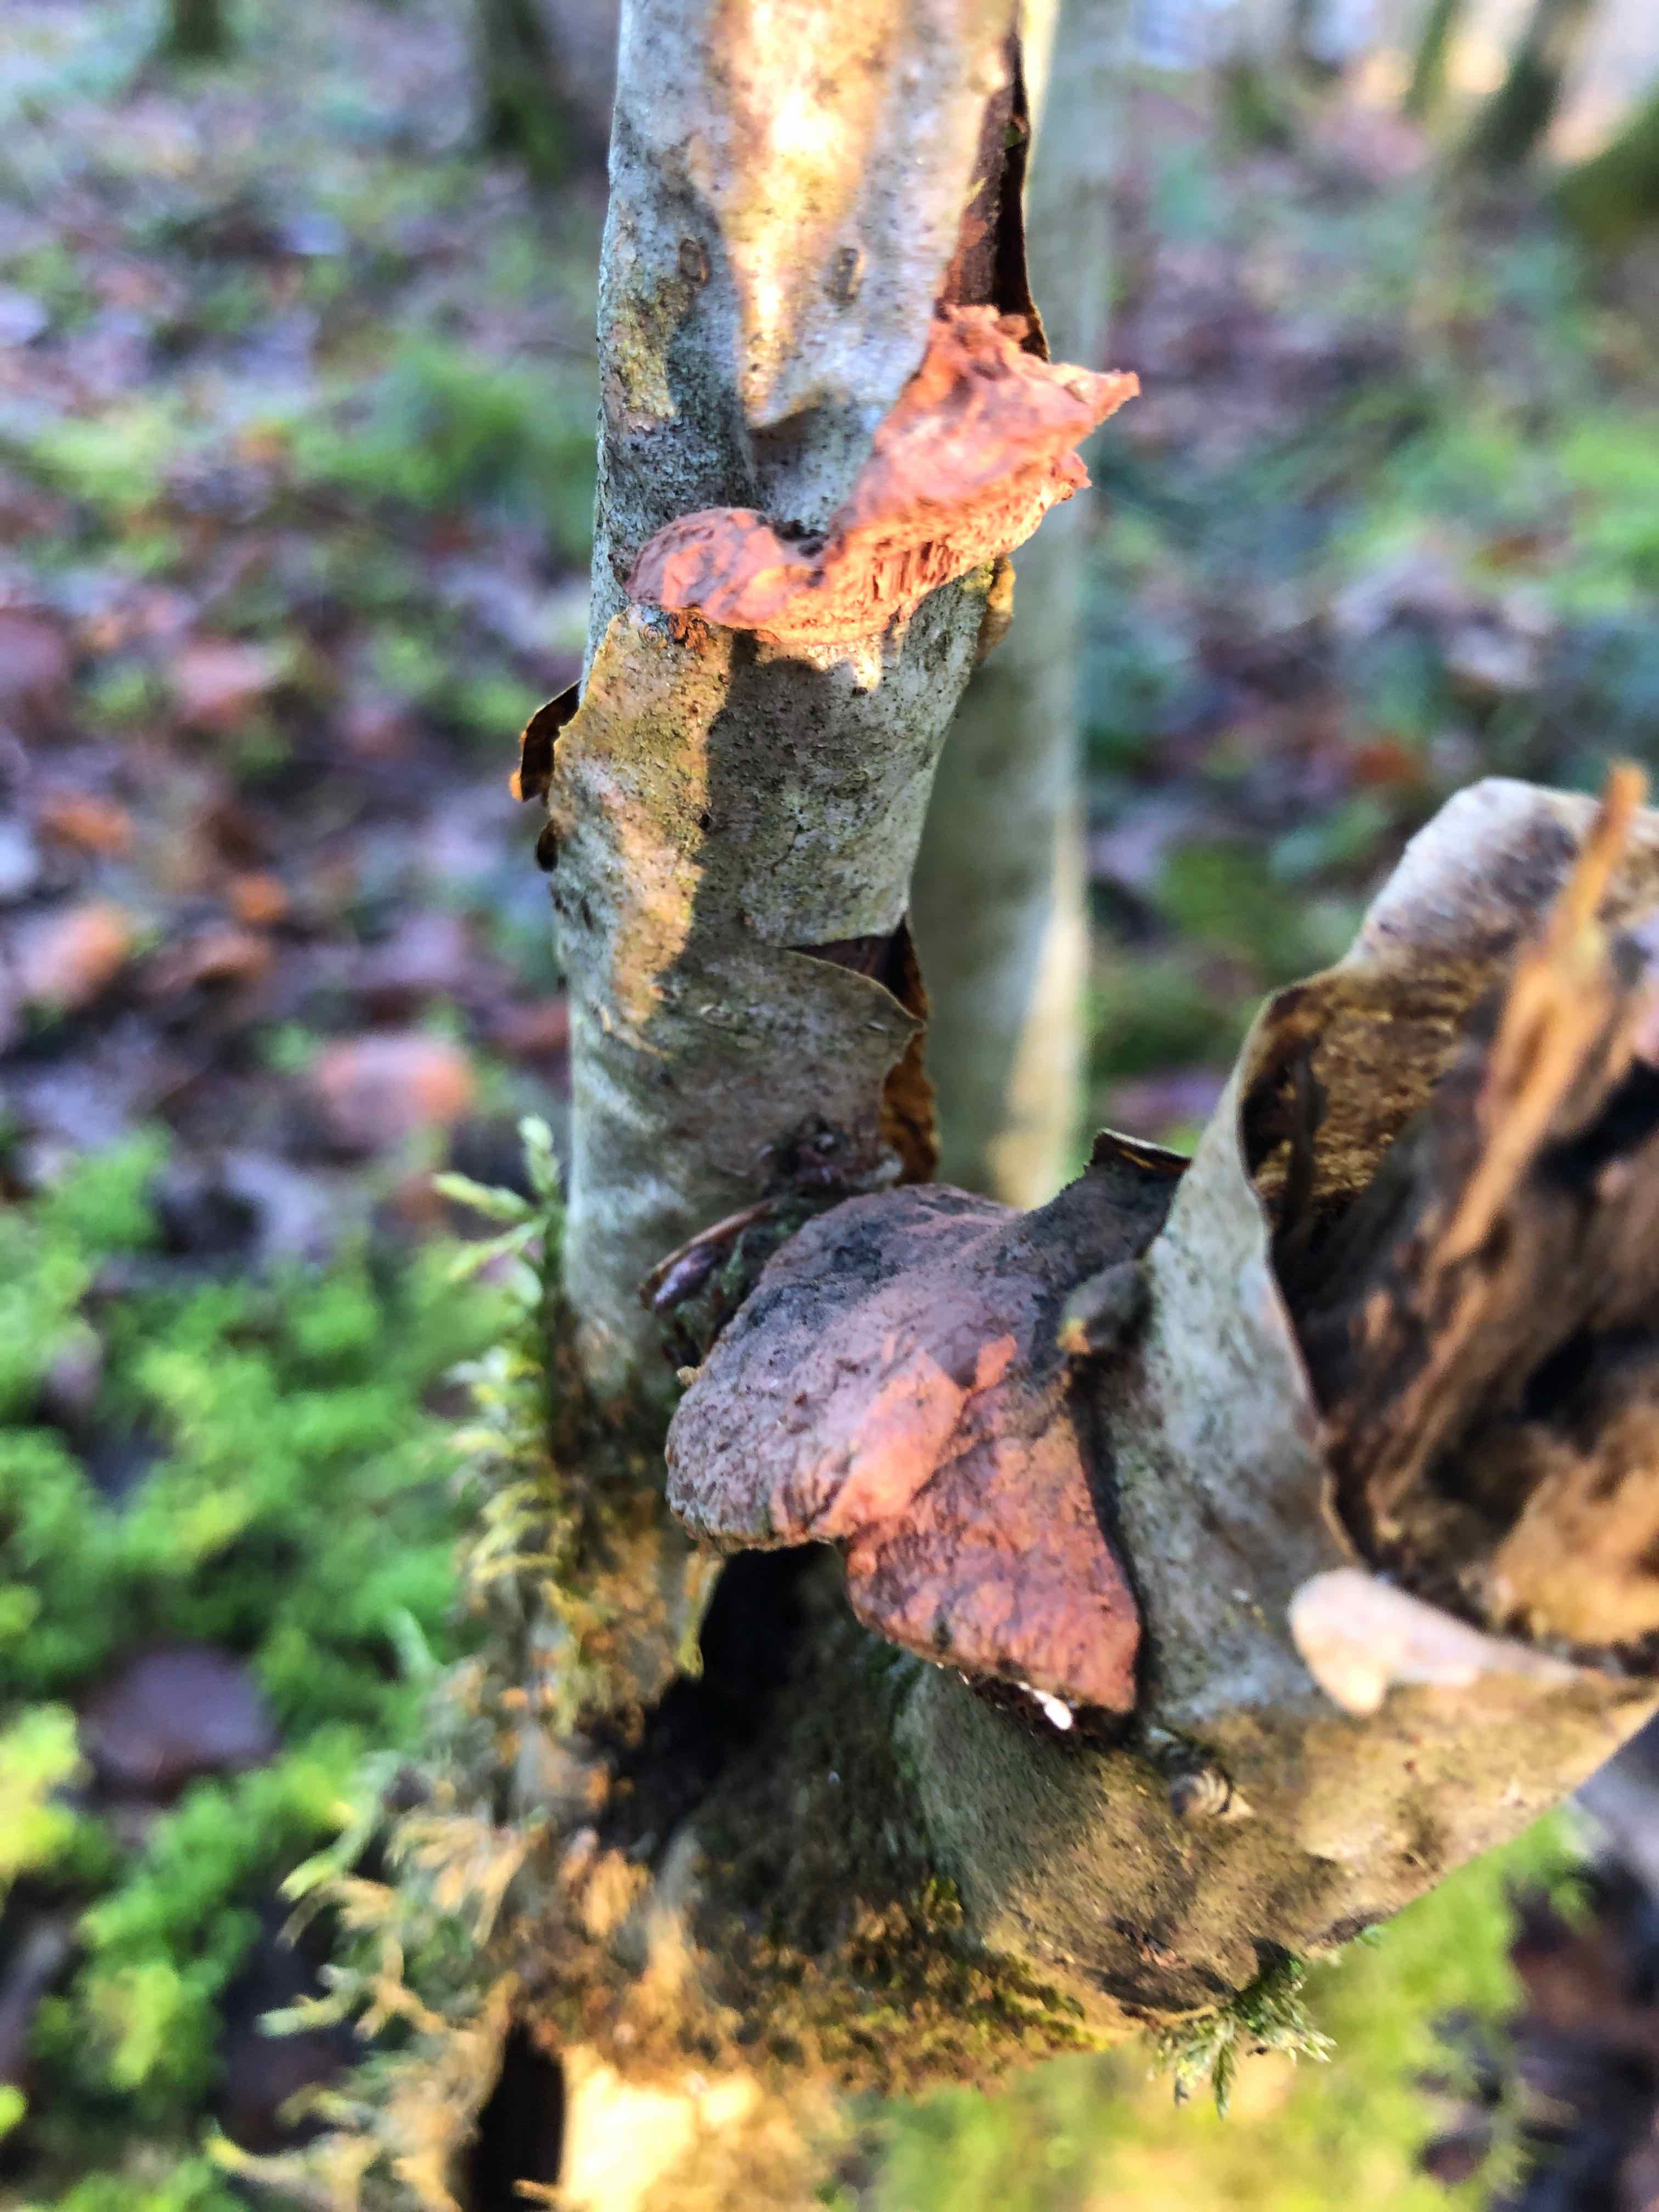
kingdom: Fungi
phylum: Basidiomycota
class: Agaricomycetes
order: Polyporales
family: Phanerochaetaceae
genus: Hapalopilus
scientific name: Hapalopilus rutilans
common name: rødlig okkerporesvamp
